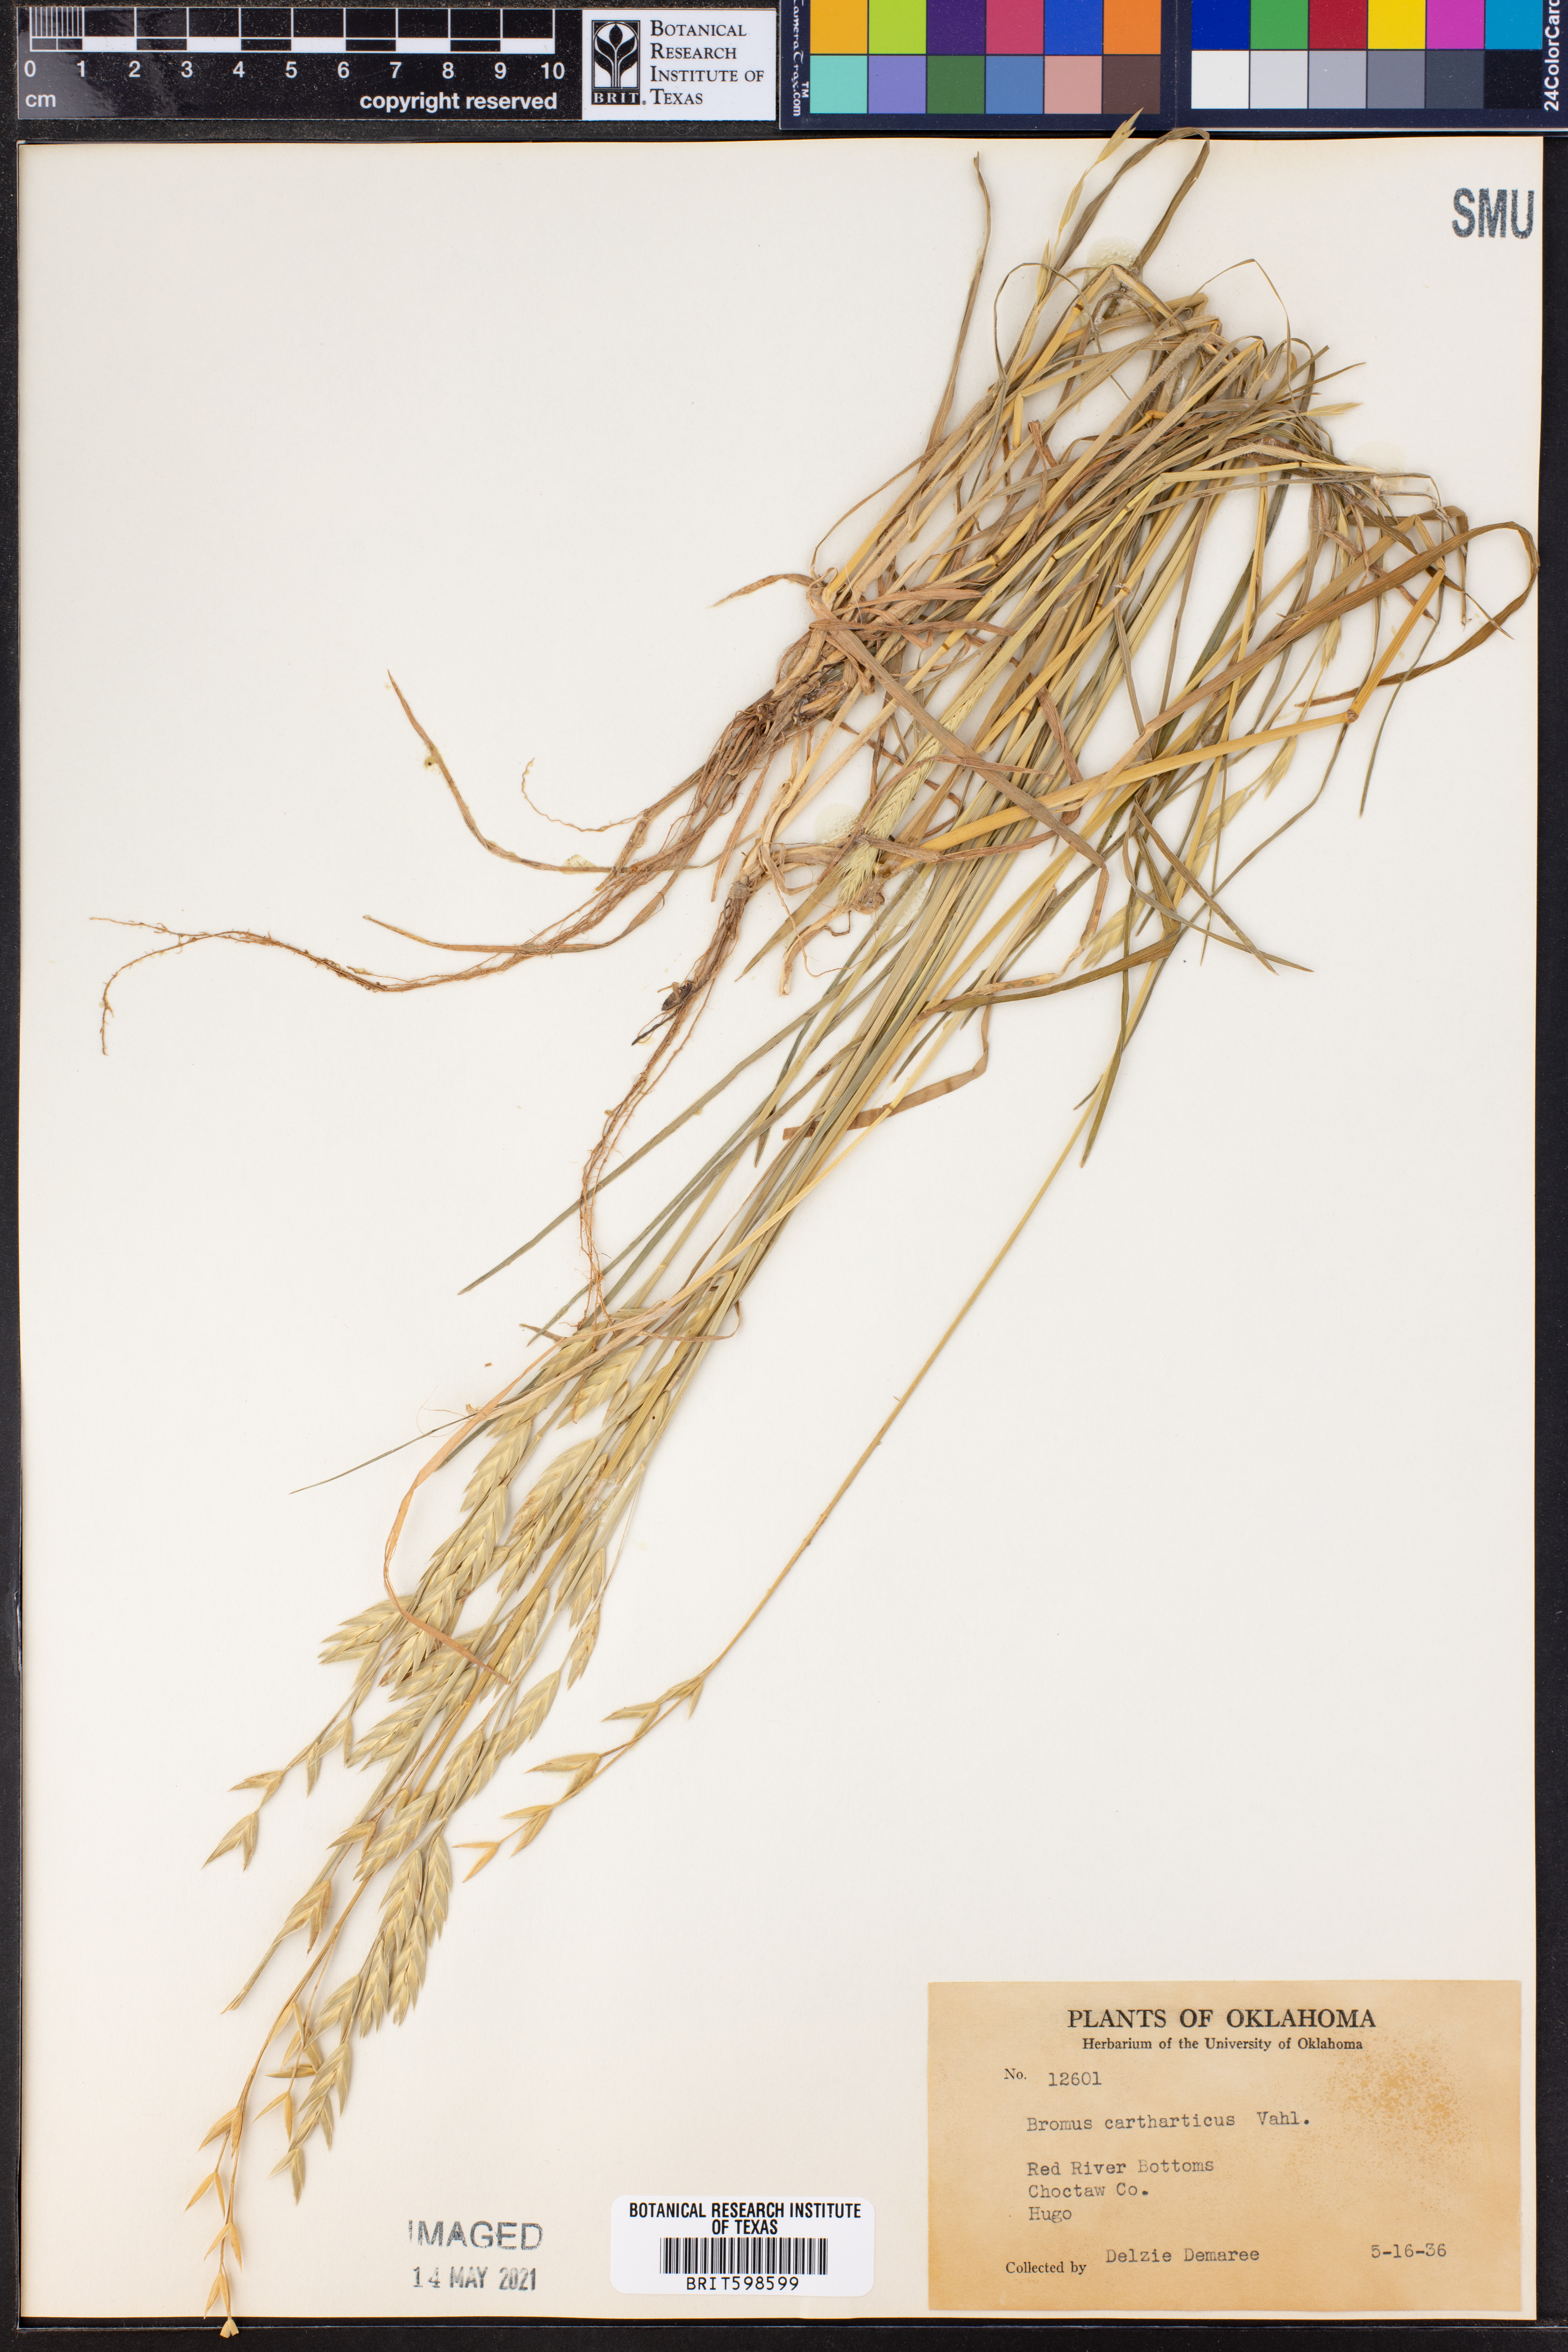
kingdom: Plantae
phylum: Tracheophyta
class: Liliopsida
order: Poales
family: Poaceae
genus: Bromus
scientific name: Bromus catharticus
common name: Rescuegrass
